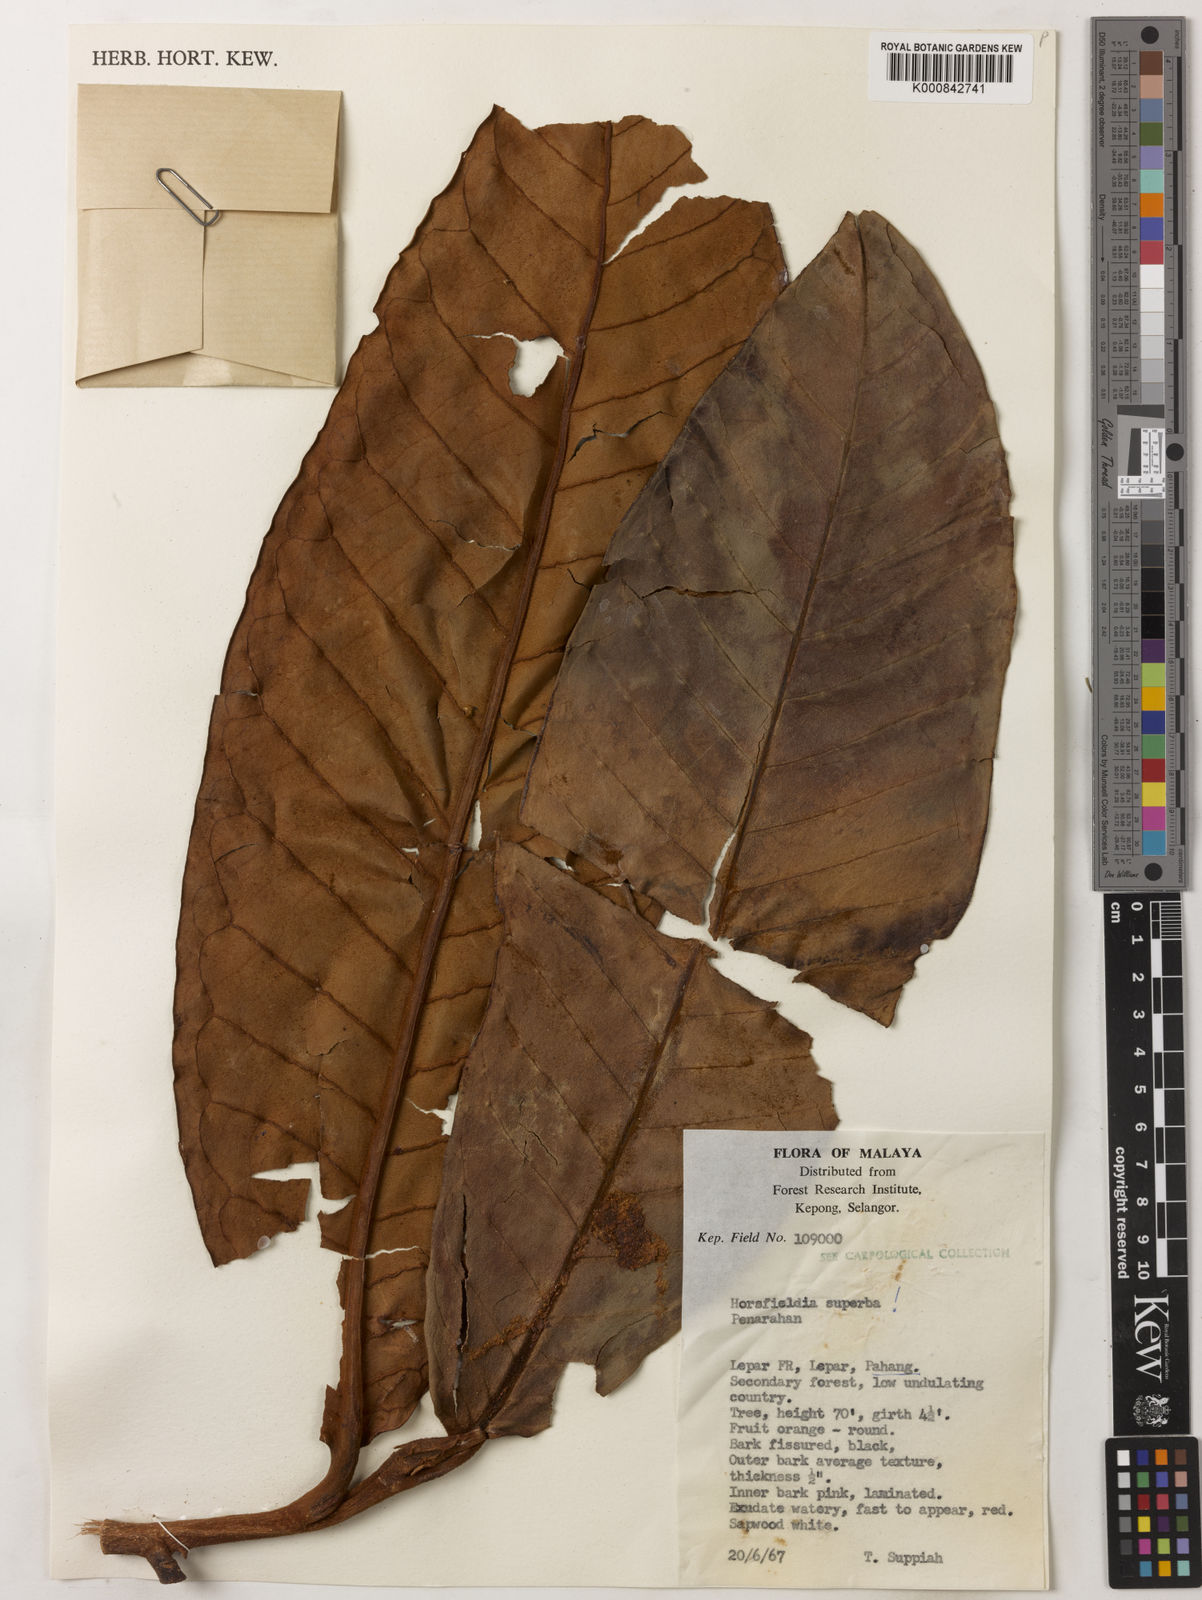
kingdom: Plantae
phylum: Tracheophyta
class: Magnoliopsida
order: Magnoliales
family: Myristicaceae
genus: Horsfieldia
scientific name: Horsfieldia superba
